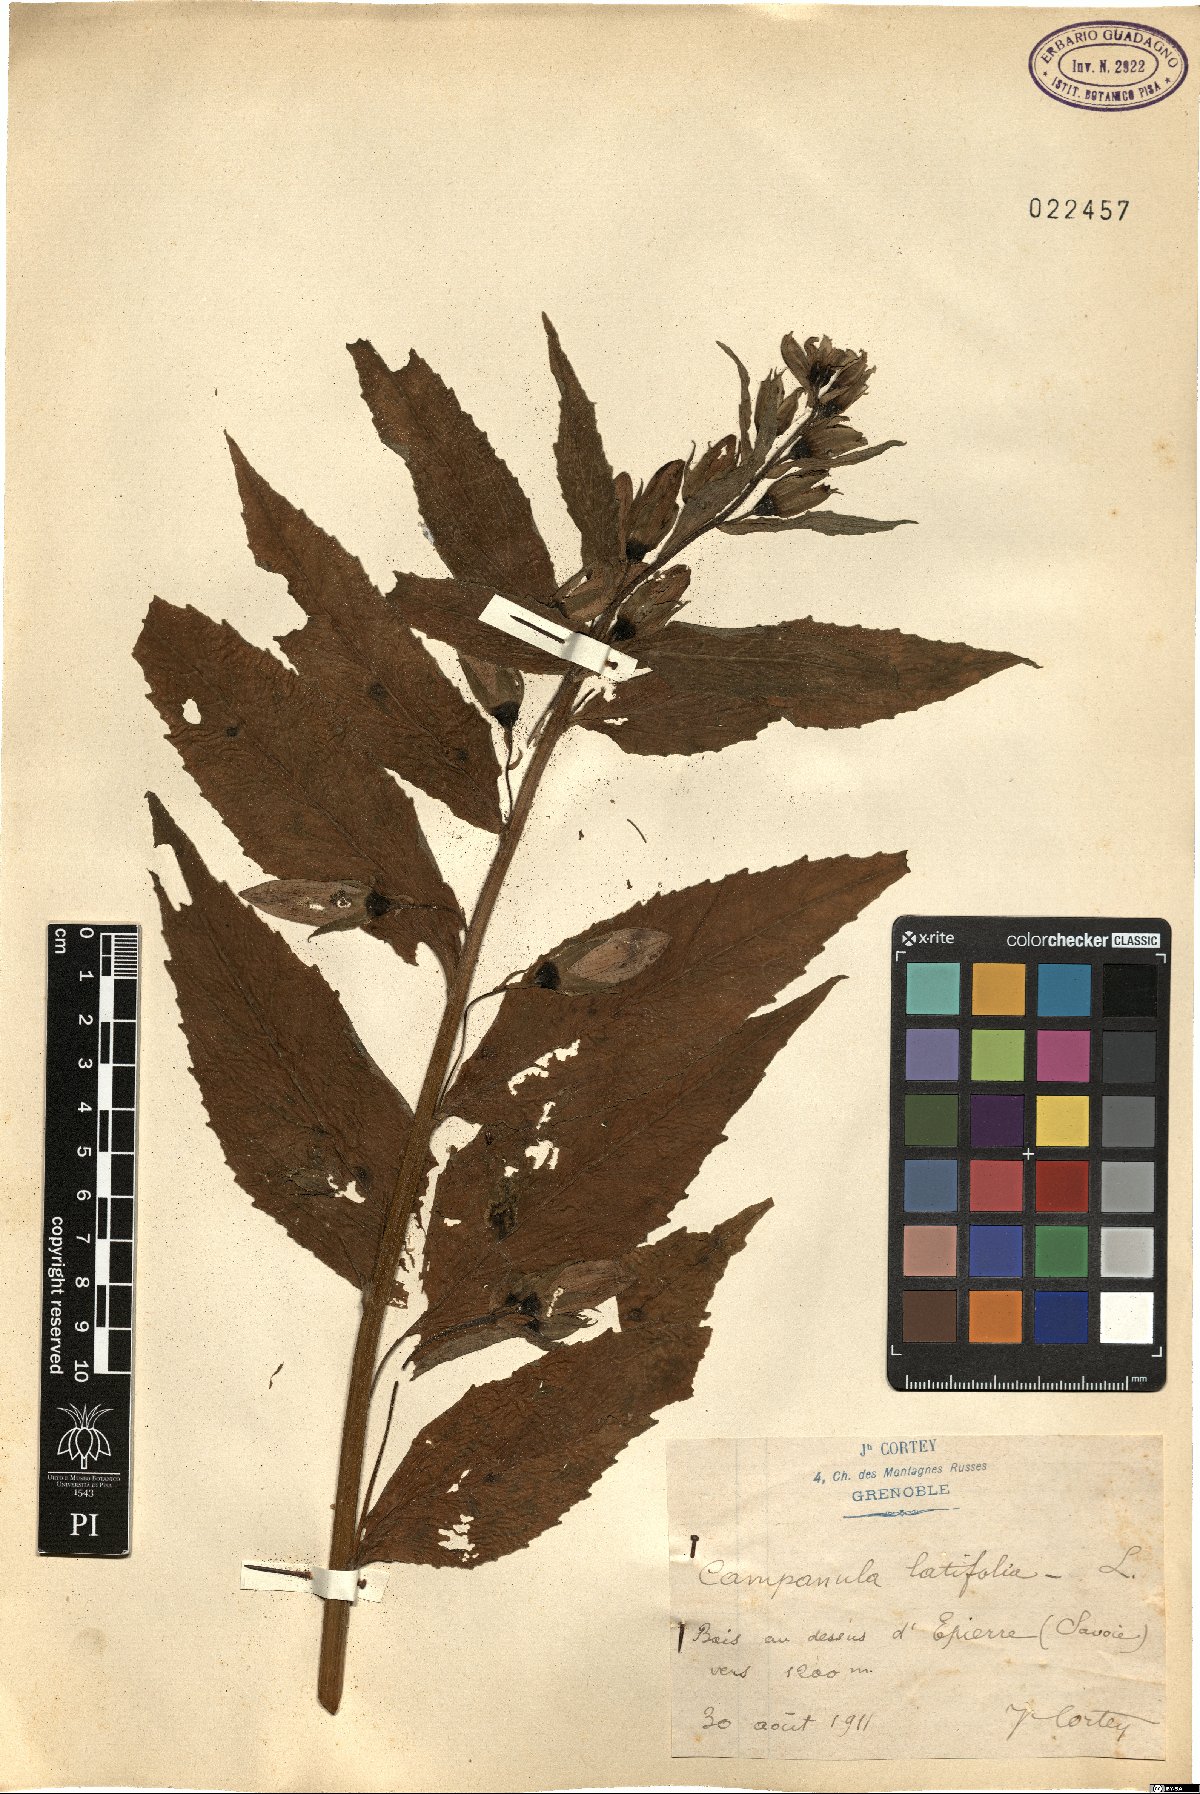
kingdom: Plantae
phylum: Tracheophyta
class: Magnoliopsida
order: Asterales
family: Campanulaceae
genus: Campanula
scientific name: Campanula latifolia
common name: Giant bellflower
